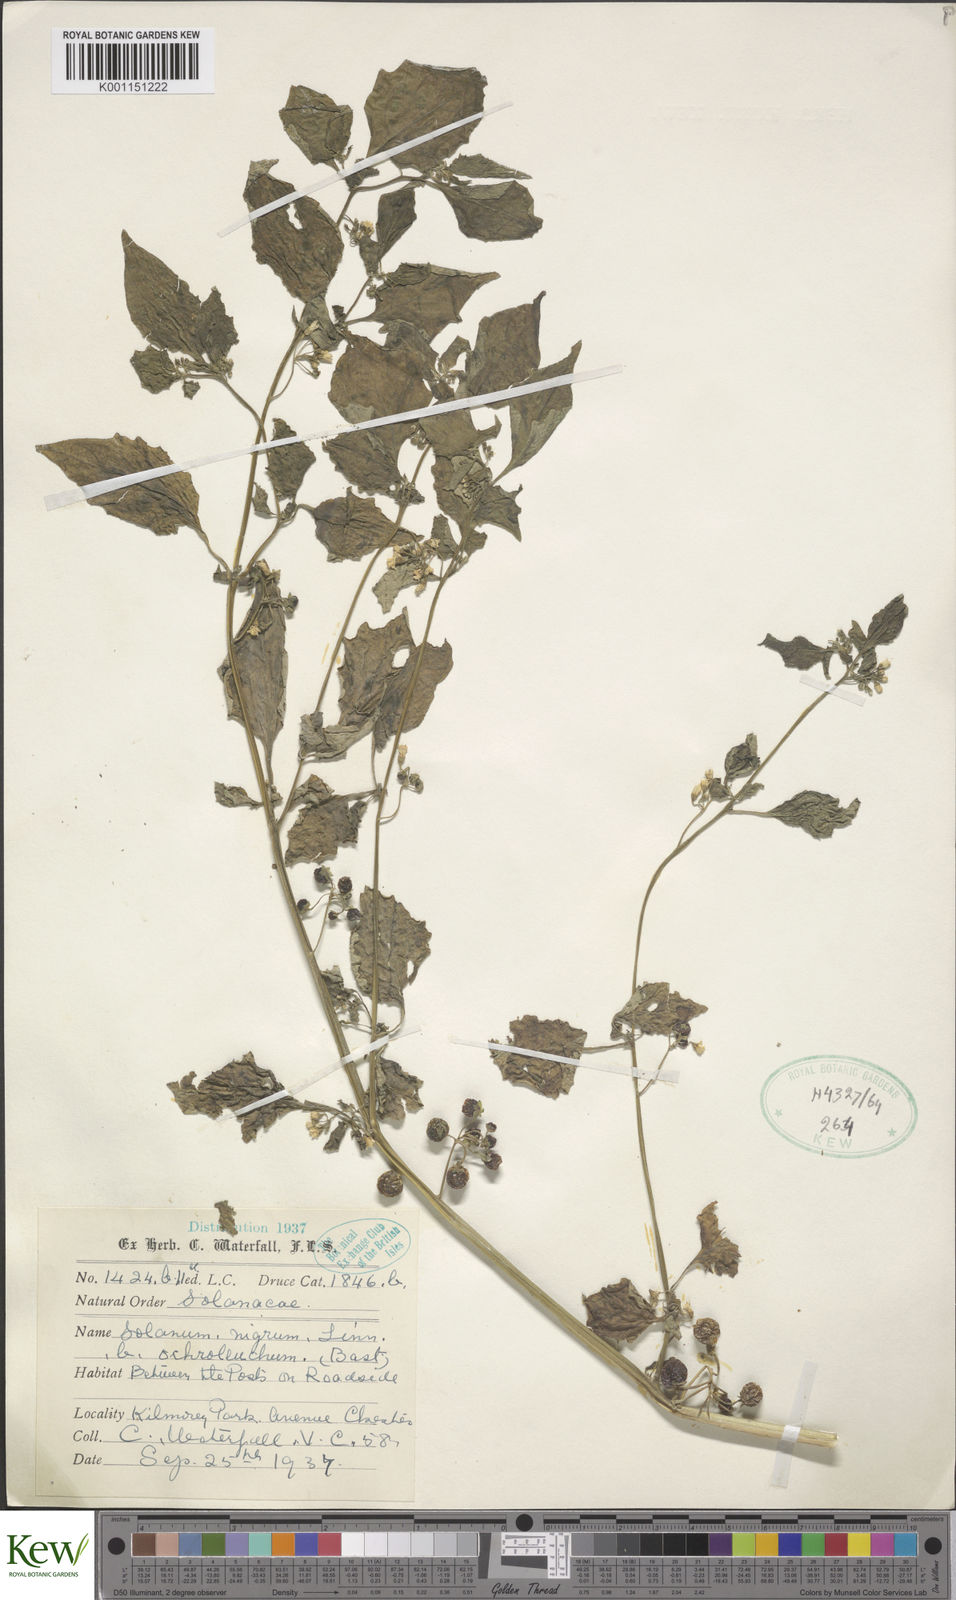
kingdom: Plantae
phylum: Tracheophyta
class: Magnoliopsida
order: Solanales
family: Solanaceae
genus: Solanum
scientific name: Solanum nigrum
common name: Black nightshade
